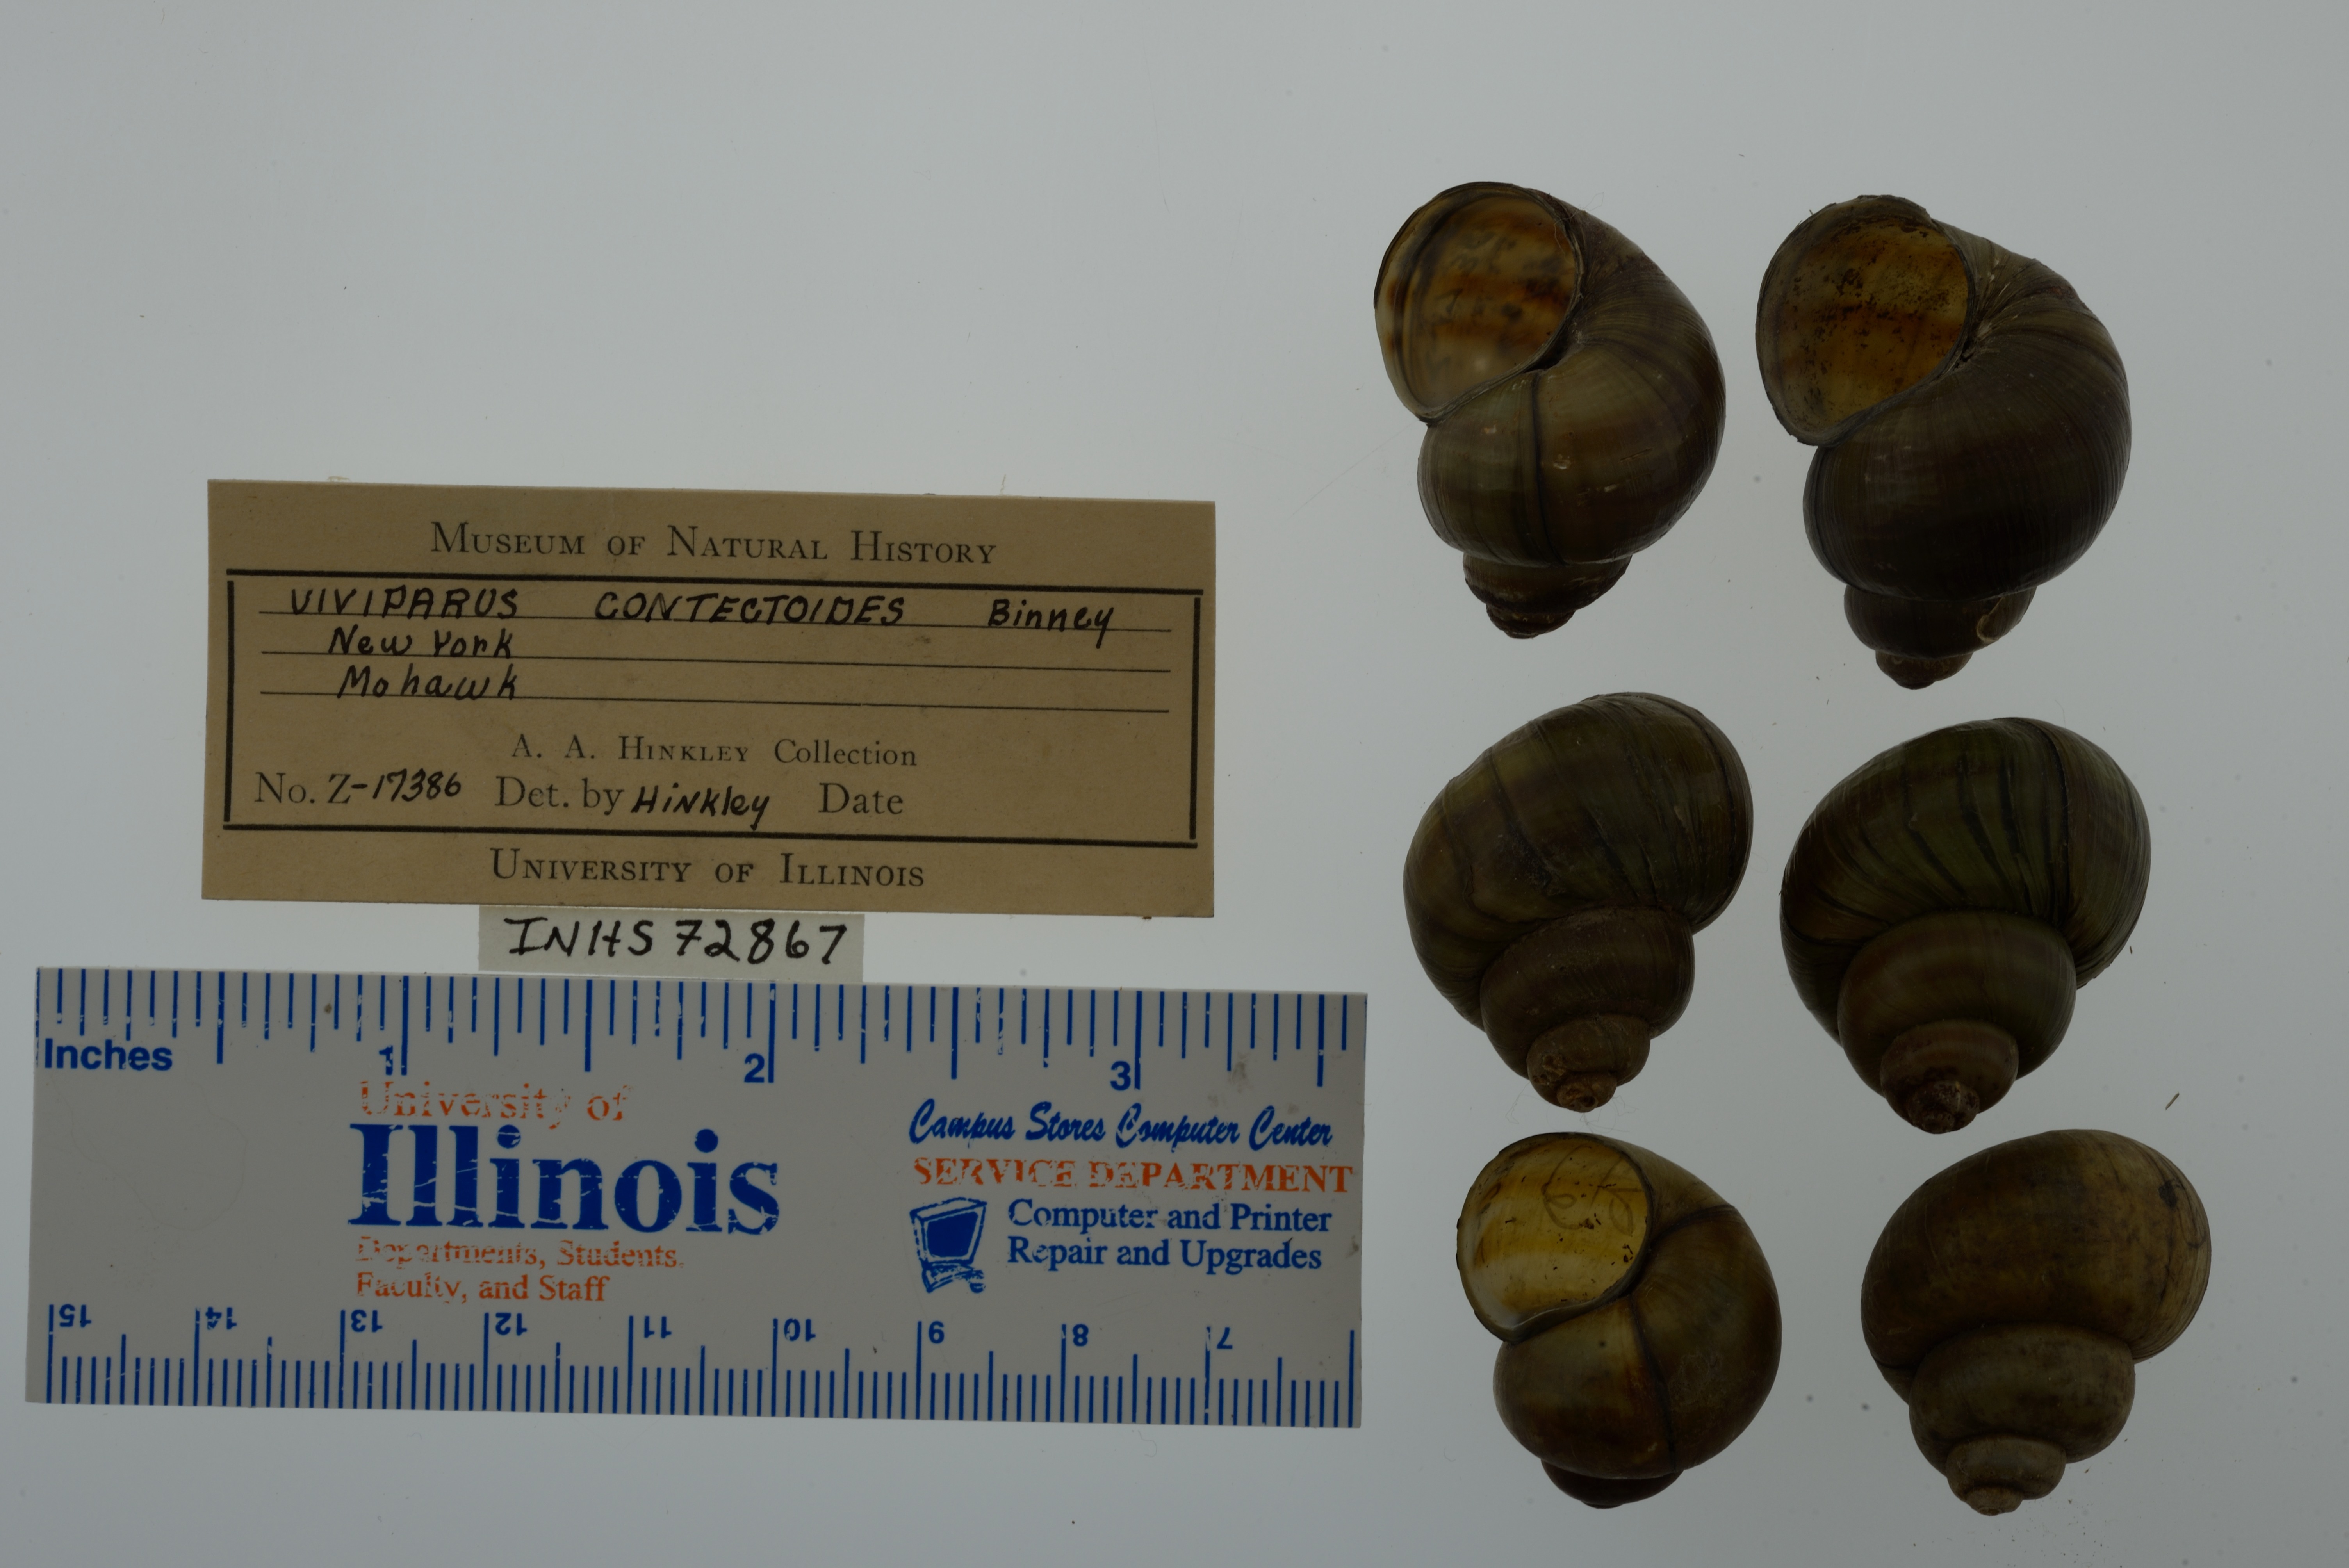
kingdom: Animalia
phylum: Mollusca
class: Gastropoda
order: Architaenioglossa
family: Viviparidae
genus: Callinina
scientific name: Callinina georgiana
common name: Banded mystery snail
